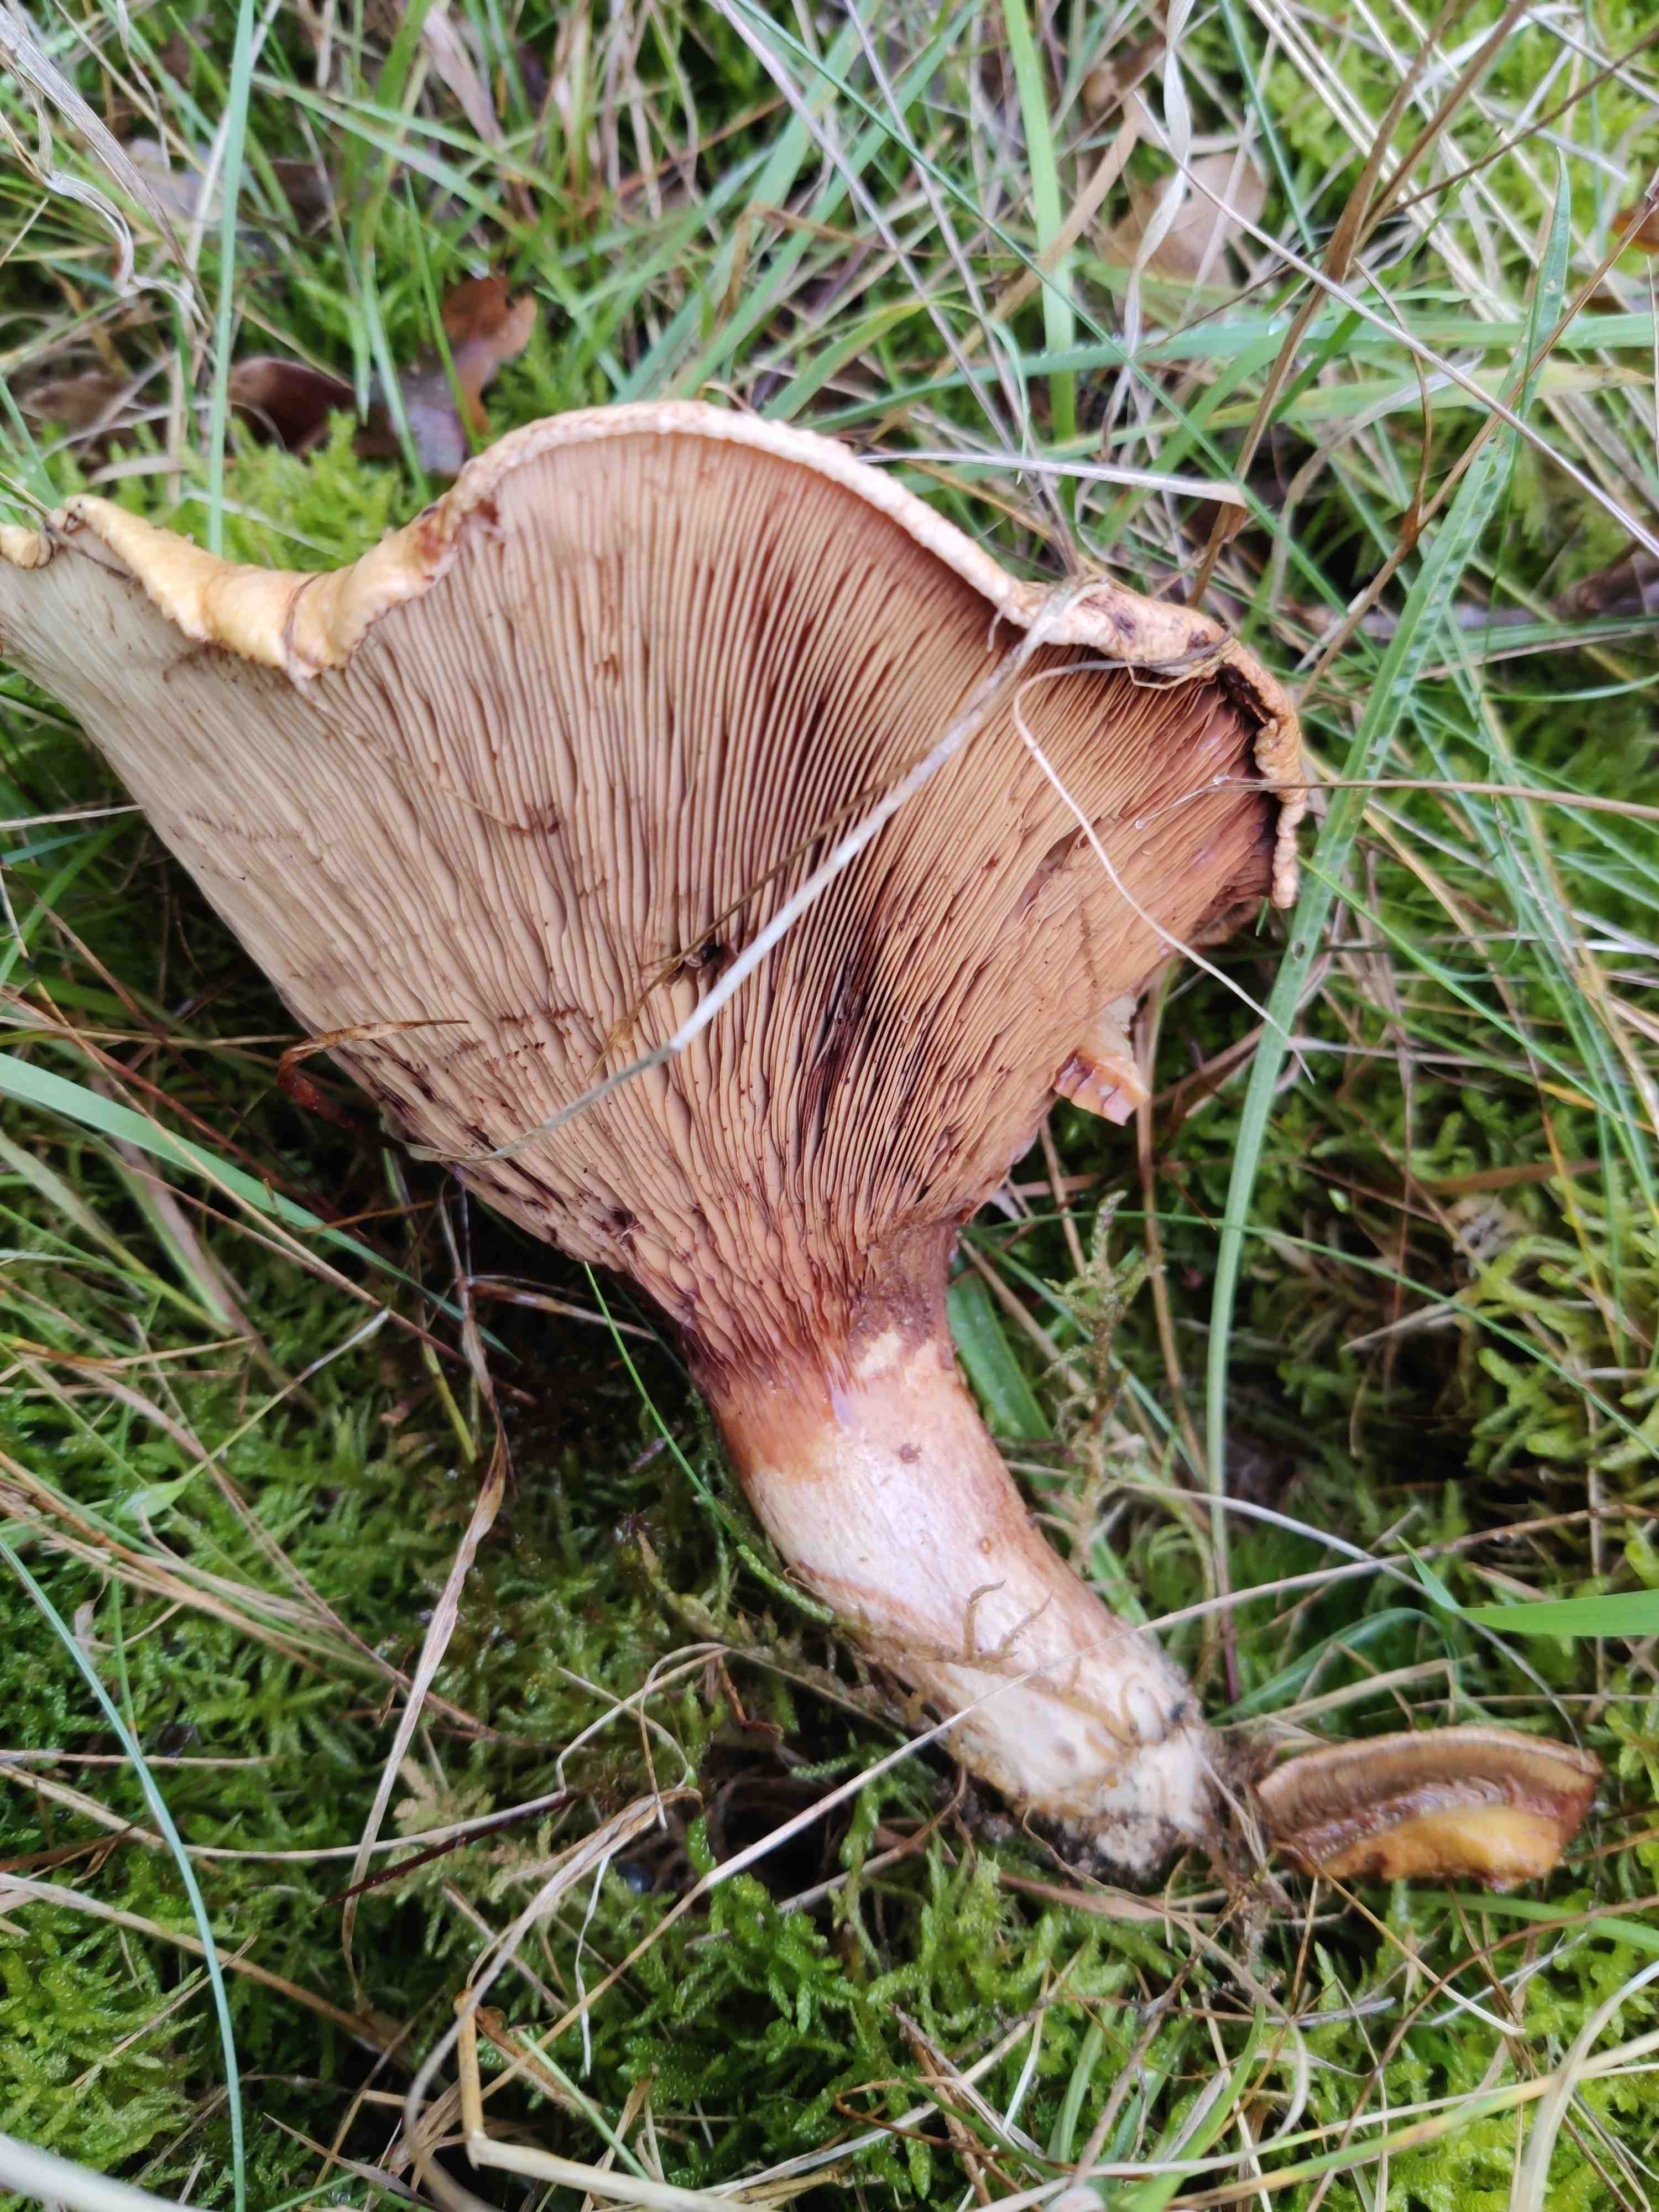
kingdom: Fungi
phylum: Basidiomycota
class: Agaricomycetes
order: Boletales
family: Paxillaceae
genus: Paxillus
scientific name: Paxillus involutus
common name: almindelig netbladhat
